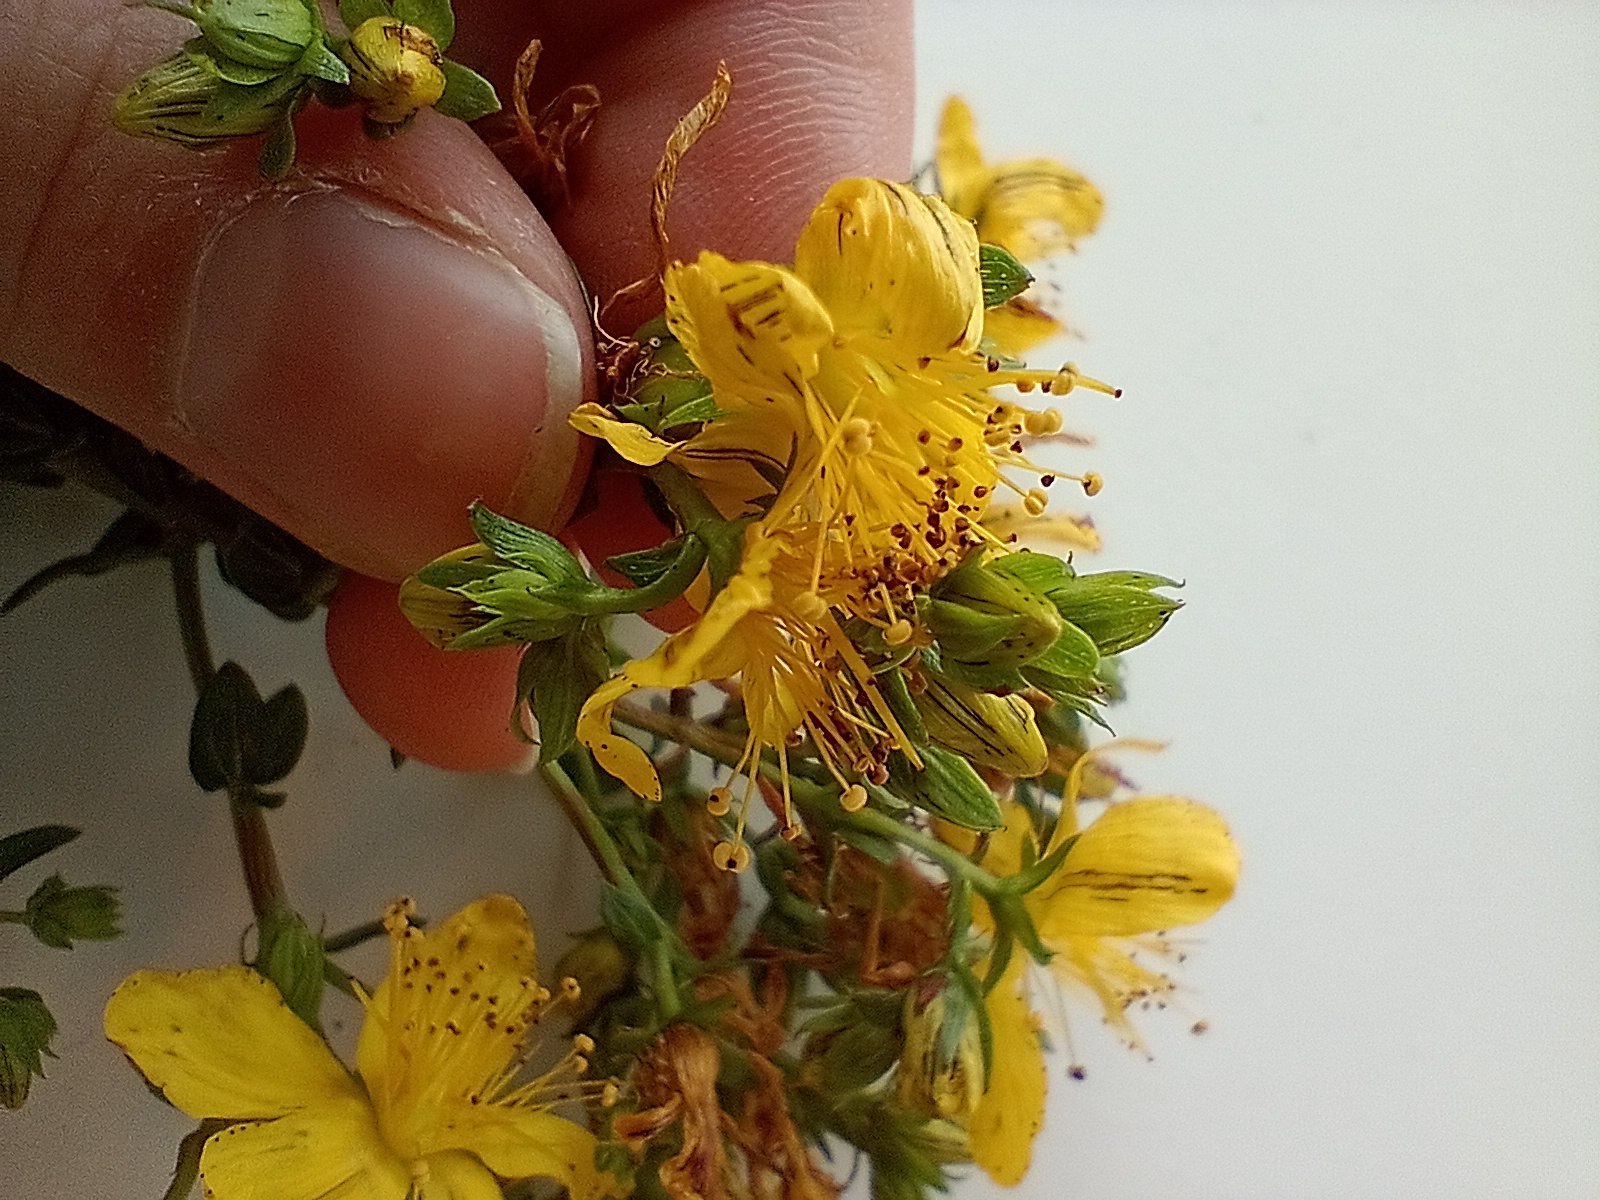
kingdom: Plantae
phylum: Tracheophyta
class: Magnoliopsida
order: Malpighiales
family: Hypericaceae
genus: Hypericum
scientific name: Hypericum dubium
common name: Kantet perikon × prikbladet perikon
